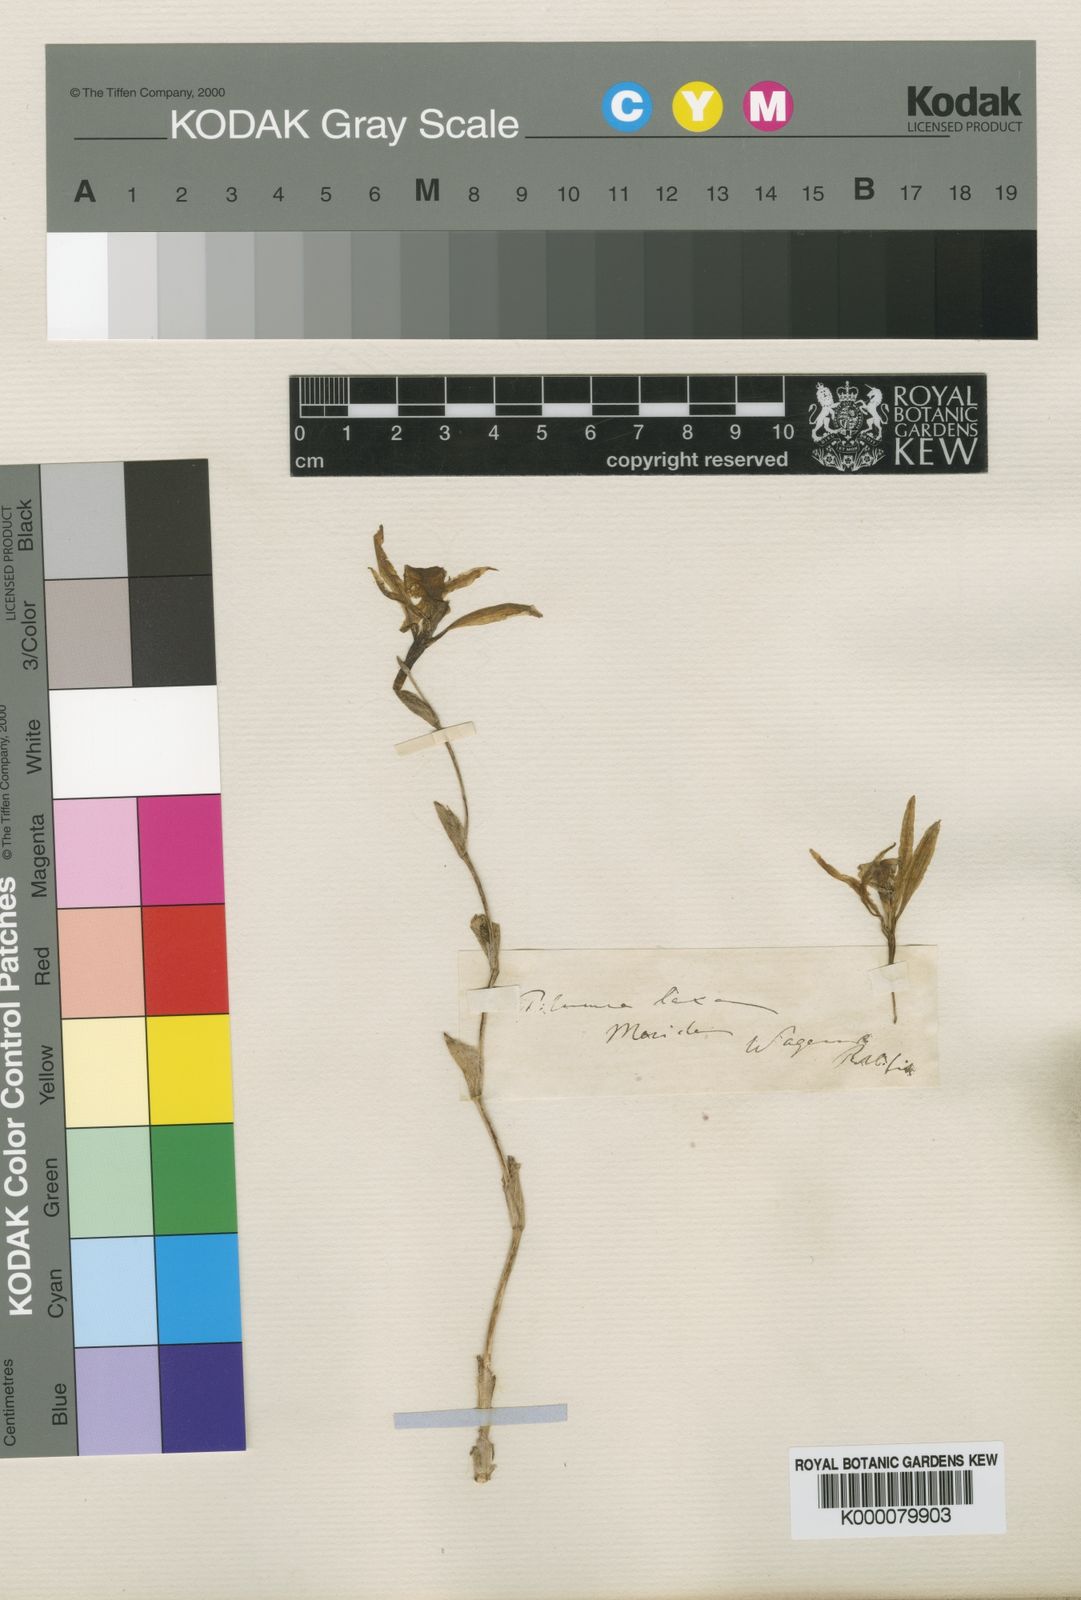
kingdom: Plantae
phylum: Tracheophyta
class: Liliopsida
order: Asparagales
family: Orchidaceae
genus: Trichopilia
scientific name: Trichopilia laxa
